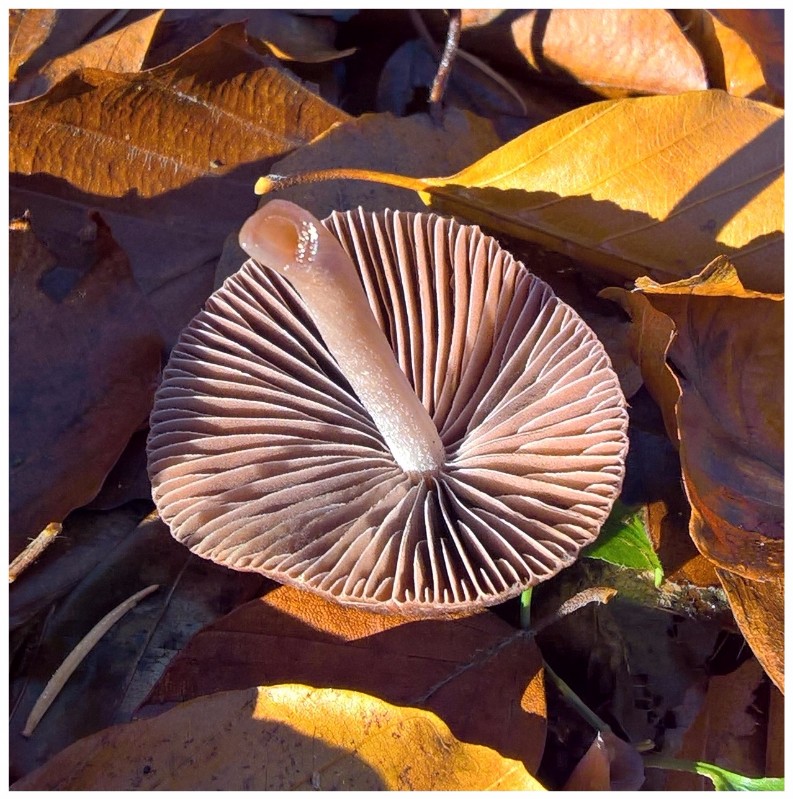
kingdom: Fungi
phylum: Basidiomycota
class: Agaricomycetes
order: Agaricales
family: Psathyrellaceae
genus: Psathyrella
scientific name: Psathyrella bipellis
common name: vinrød mørkhat
